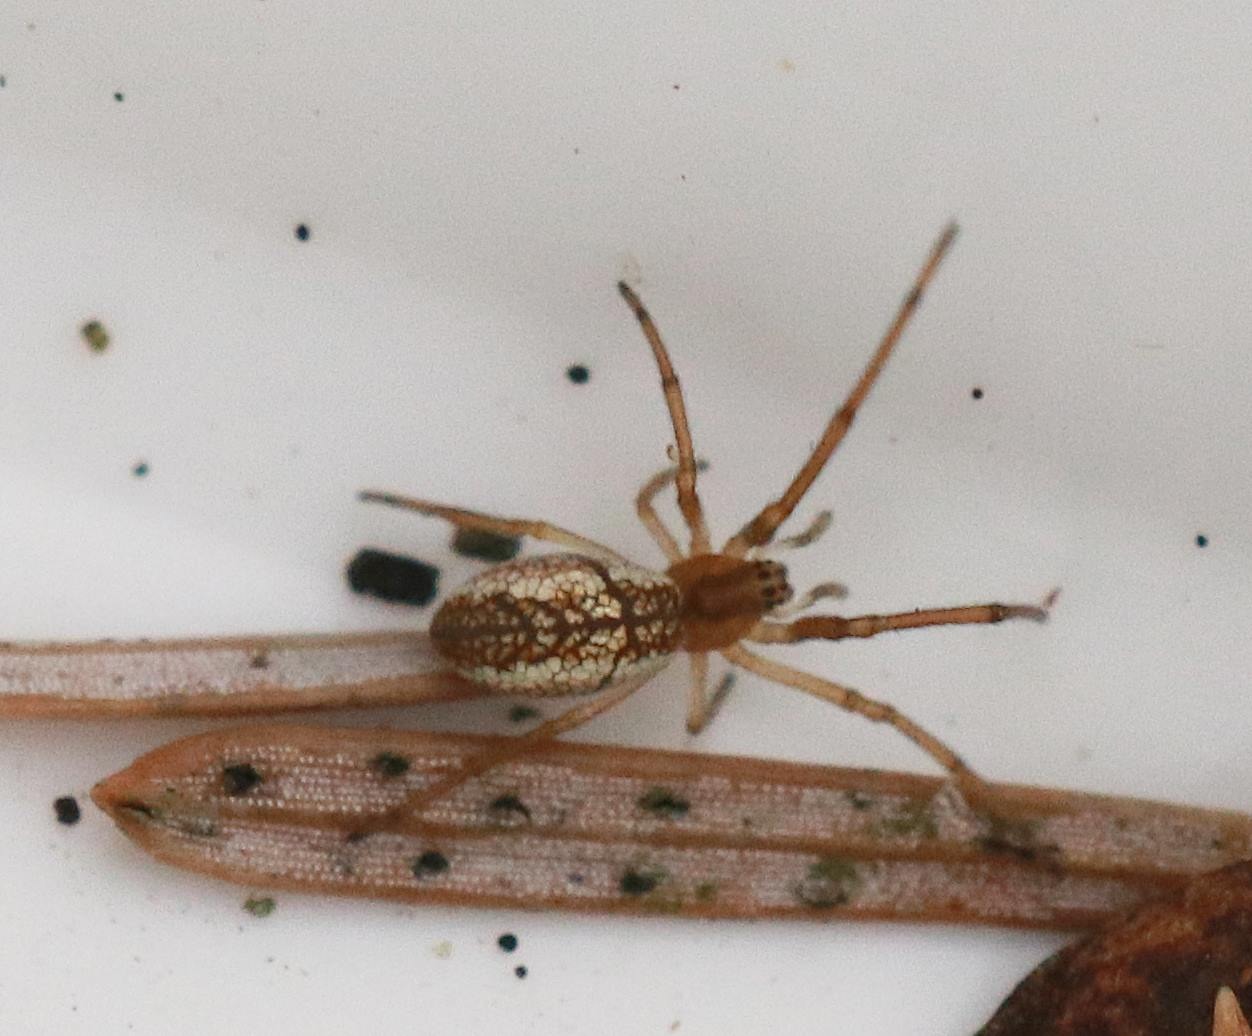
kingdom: Animalia
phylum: Arthropoda
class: Arachnida
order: Araneae
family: Tetragnathidae
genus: Tetragnatha
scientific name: Tetragnatha
